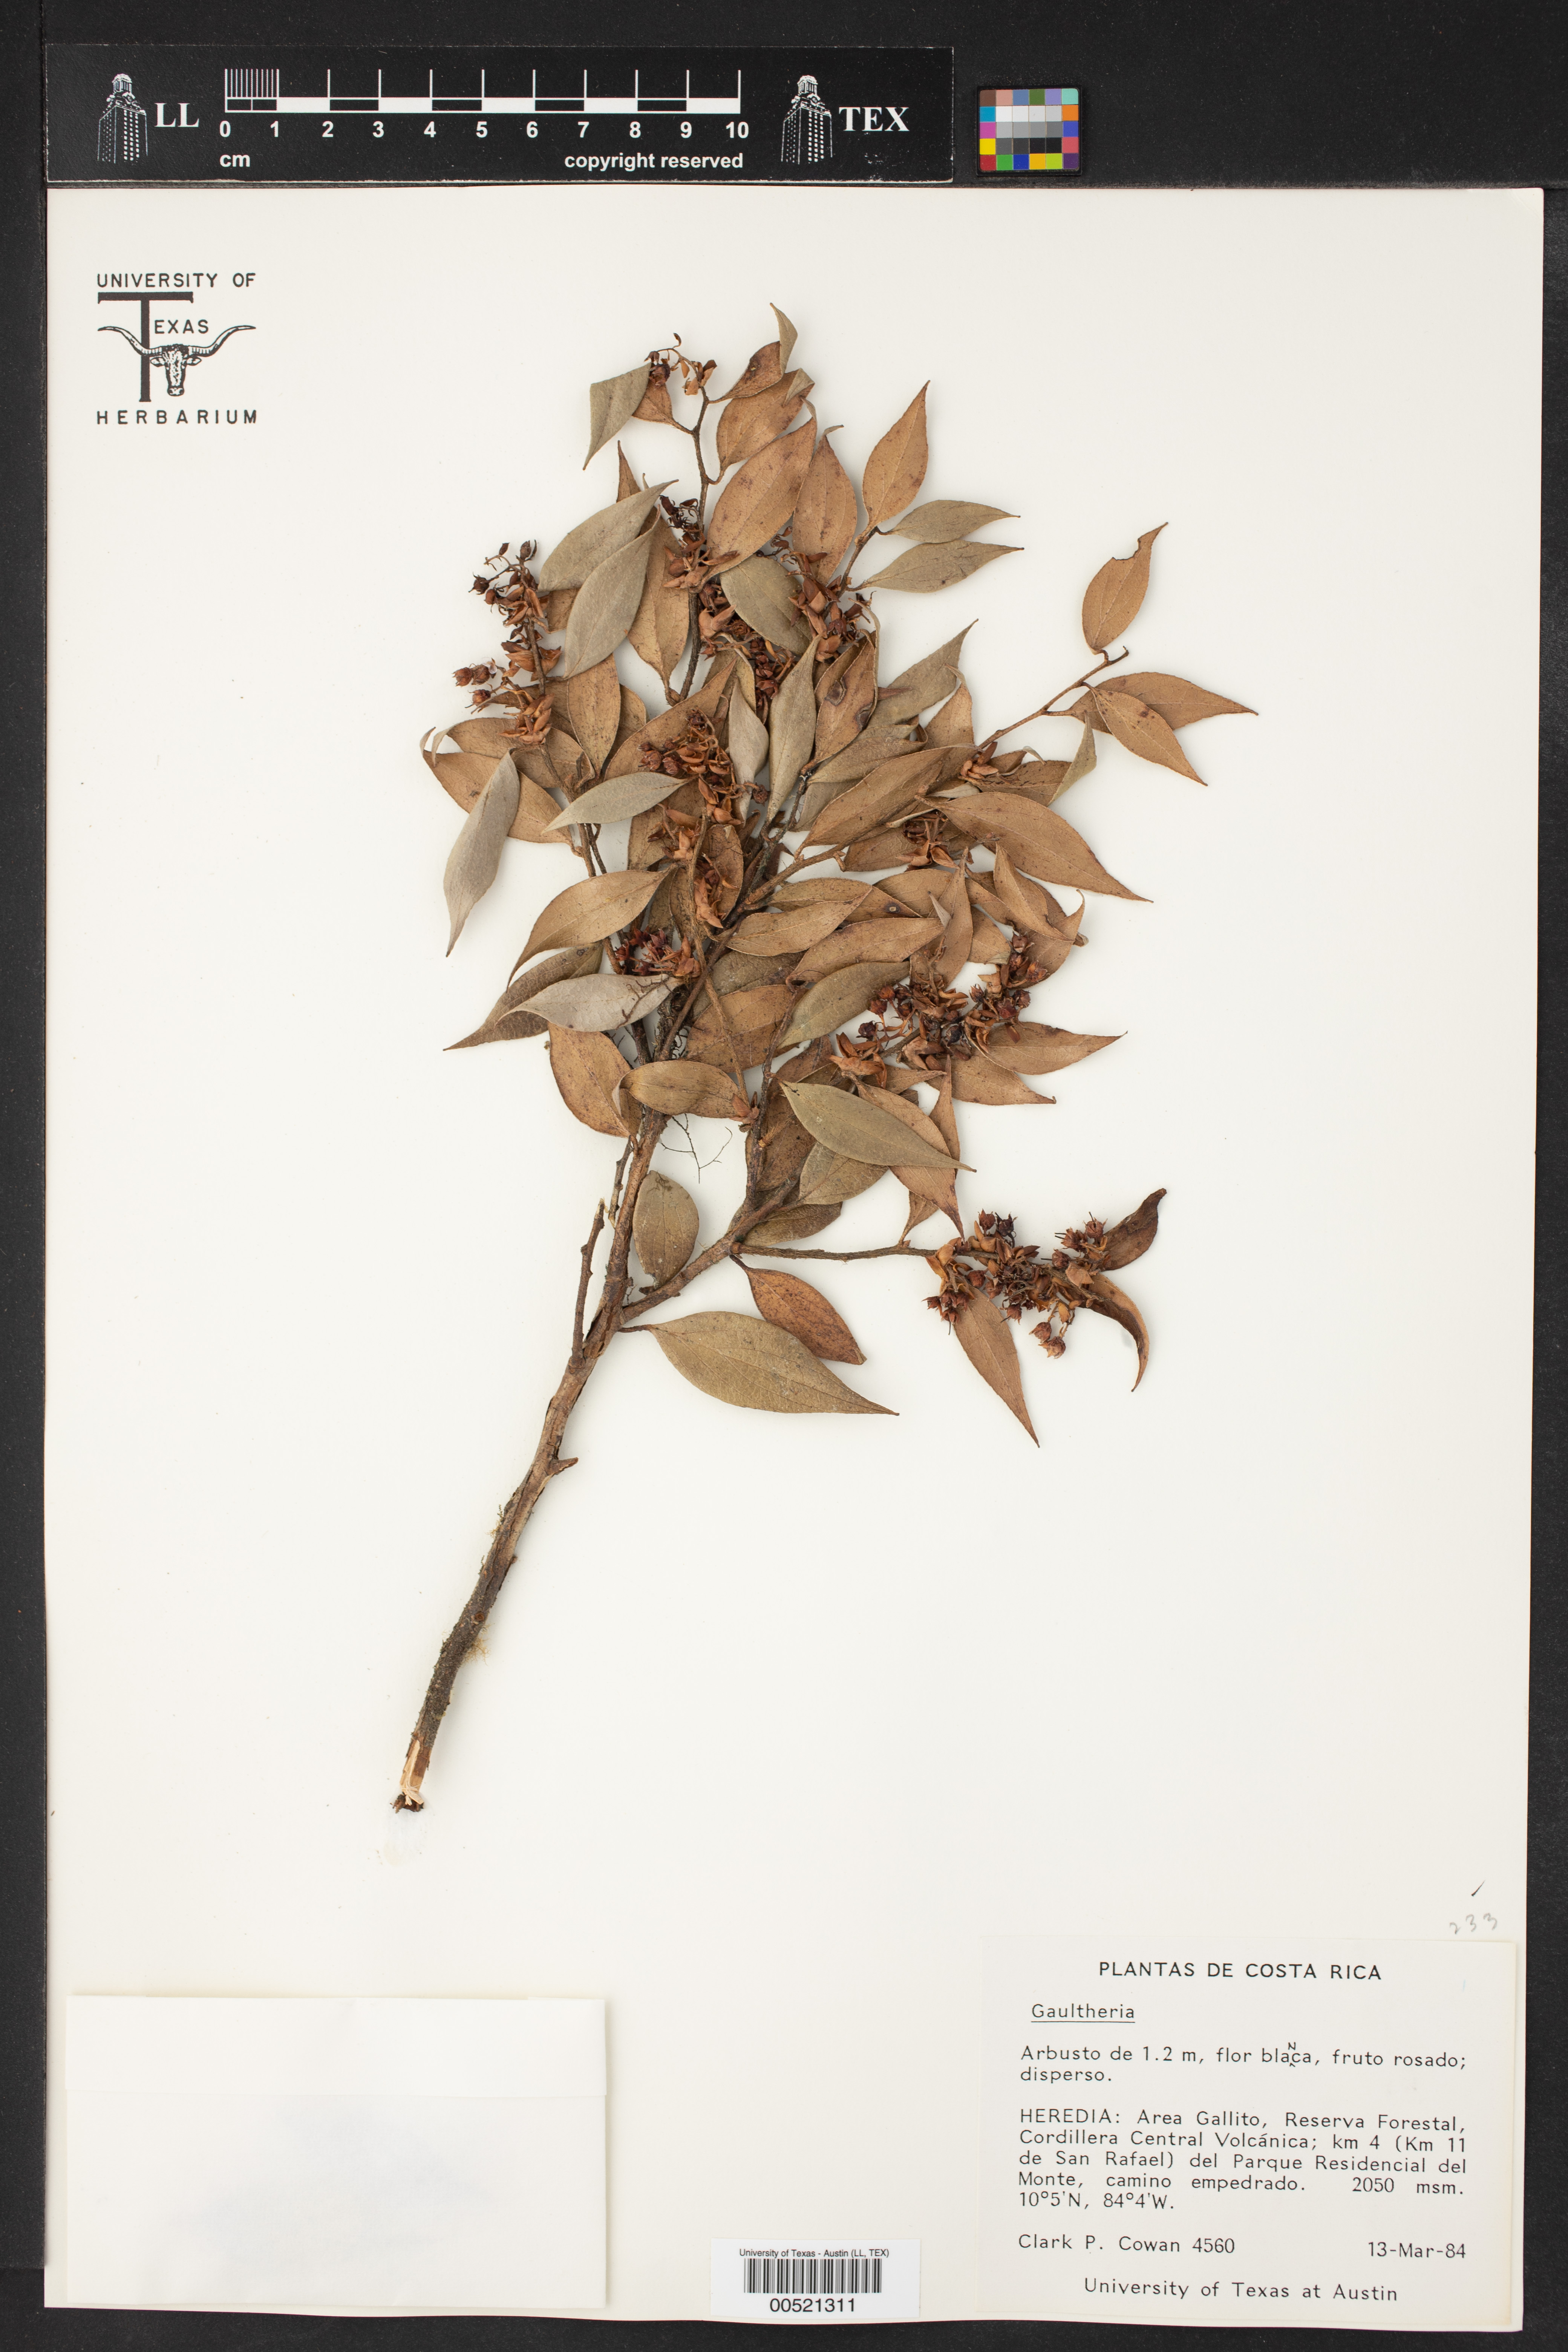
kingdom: Plantae
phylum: Tracheophyta
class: Magnoliopsida
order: Ericales
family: Ericaceae
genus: Gaultheria
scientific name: Gaultheria
